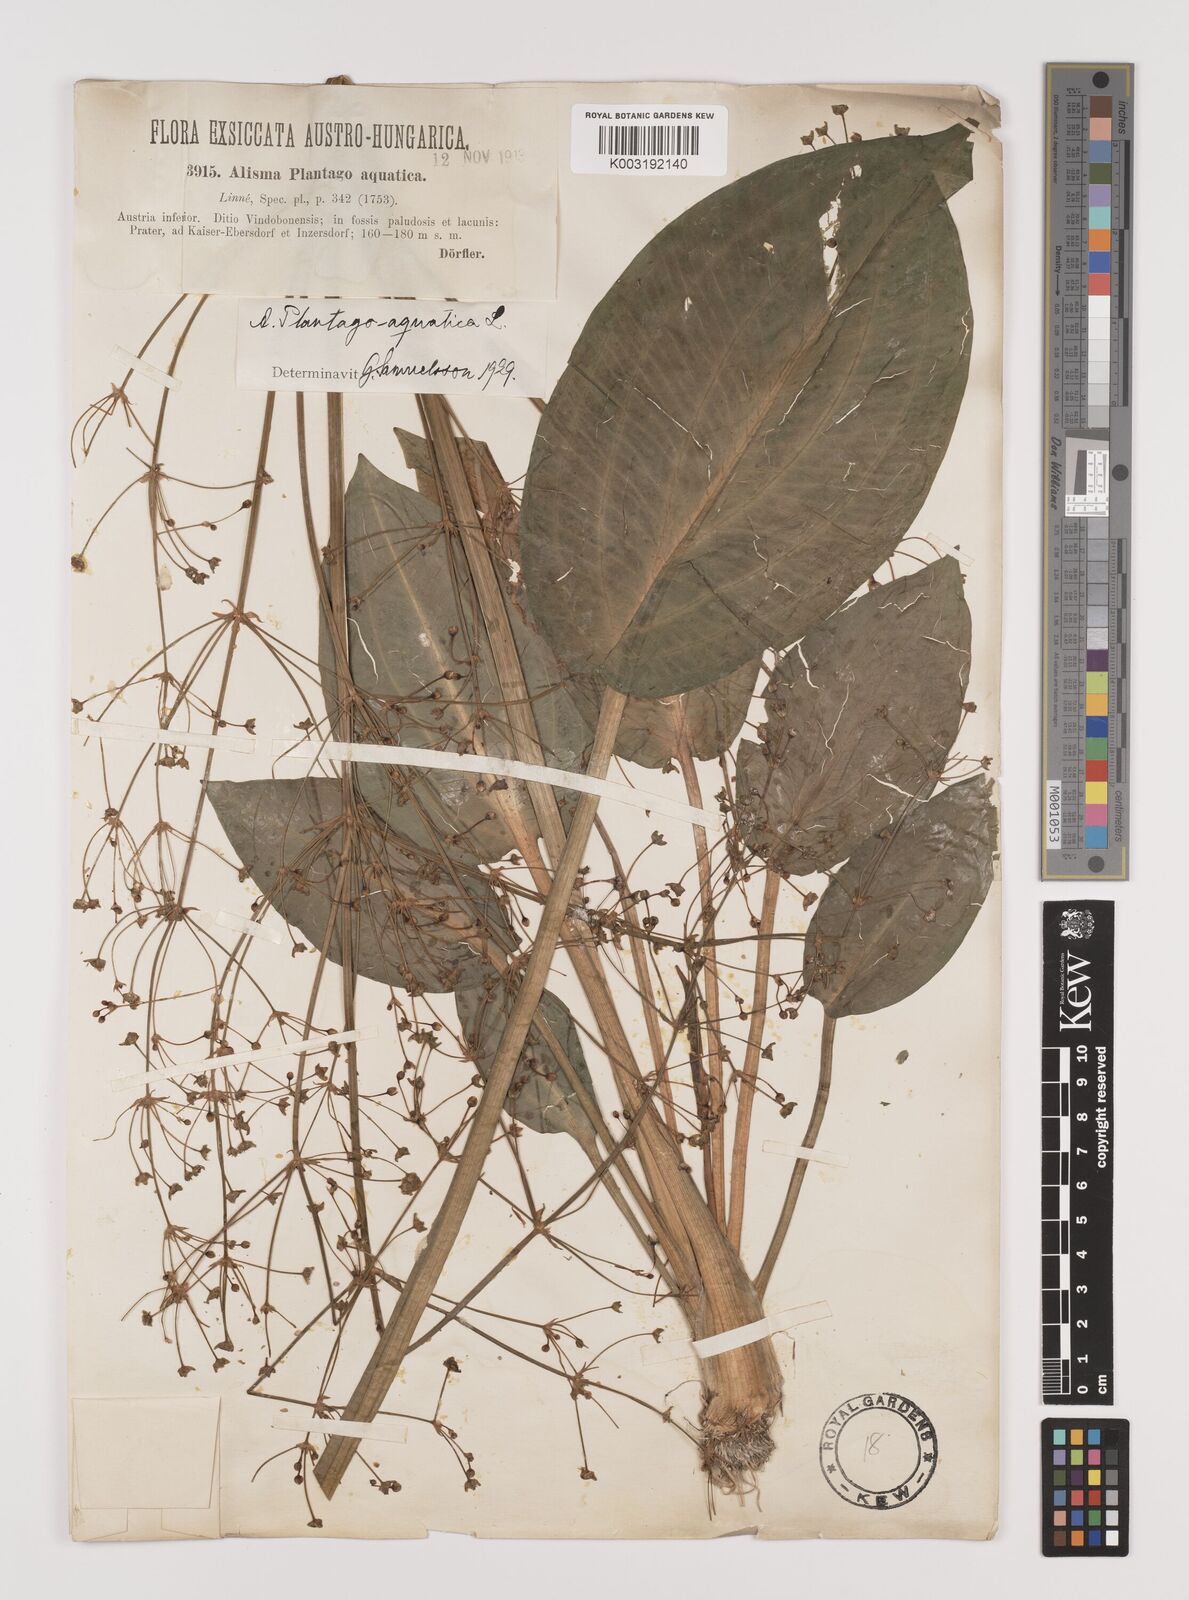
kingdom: Plantae
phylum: Tracheophyta
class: Liliopsida
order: Alismatales
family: Alismataceae
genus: Alisma
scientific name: Alisma plantago-aquatica
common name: Water-plantain
